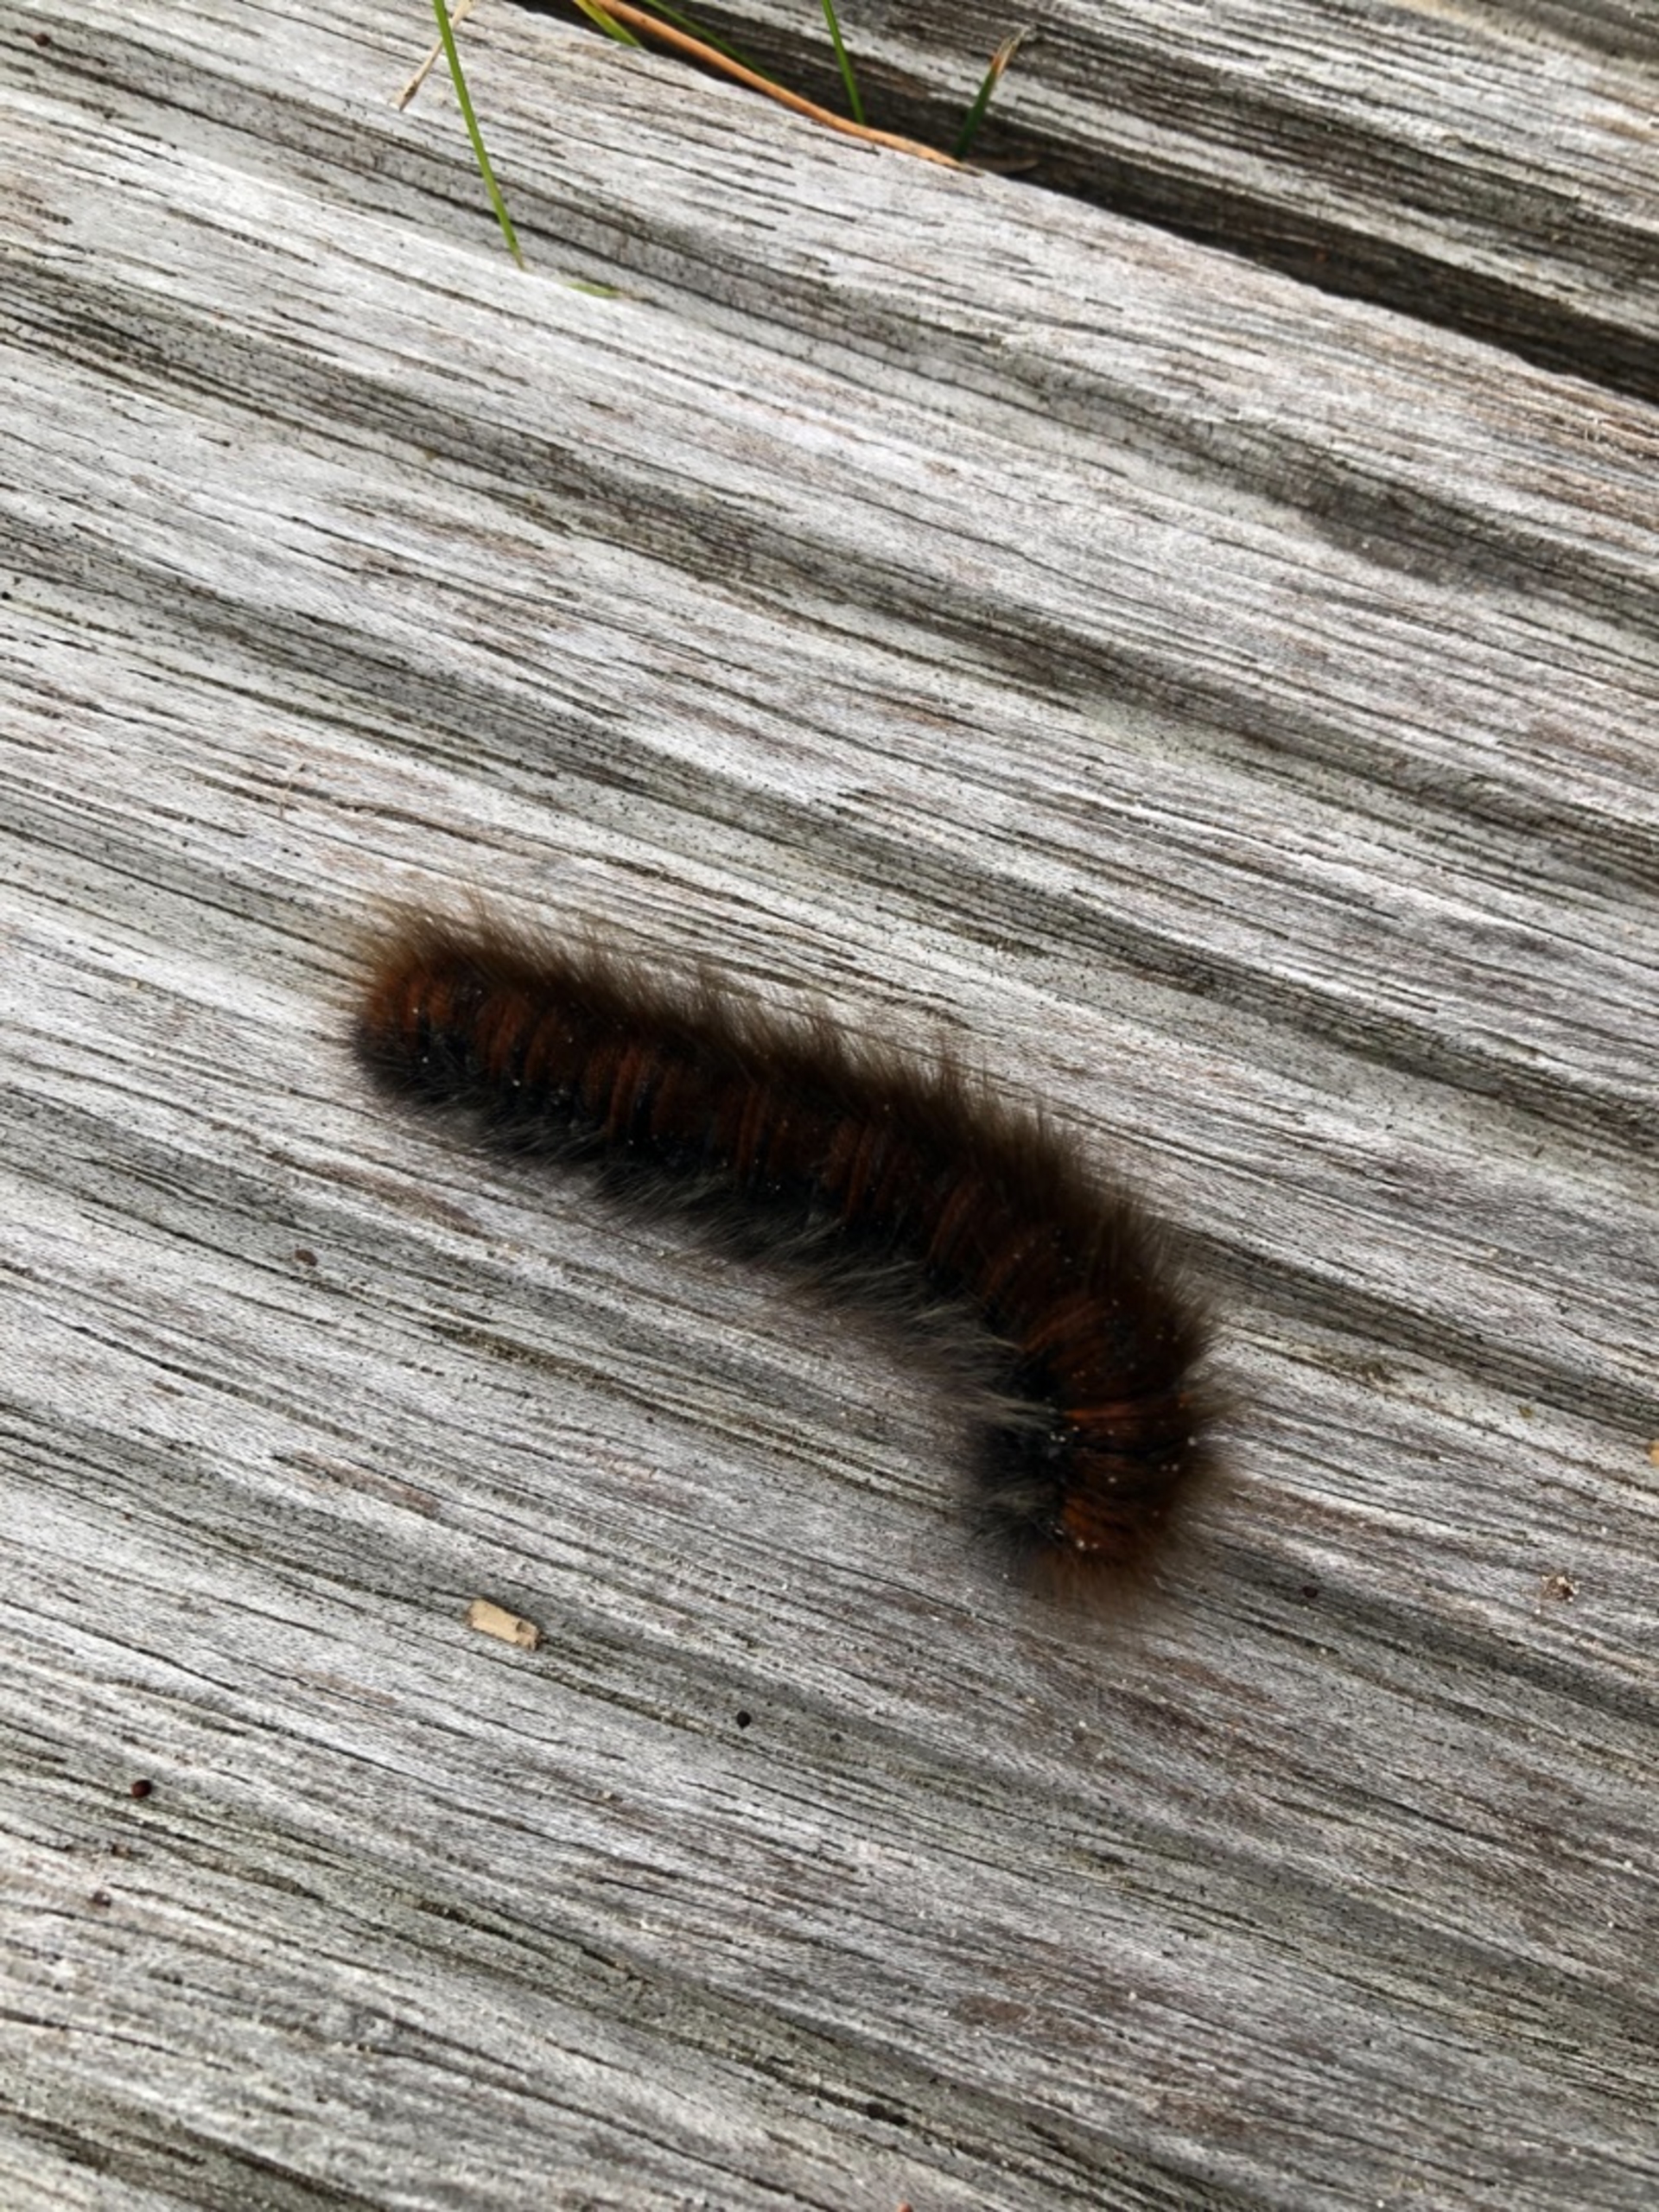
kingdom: Animalia
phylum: Arthropoda
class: Insecta
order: Lepidoptera
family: Lasiocampidae
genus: Macrothylacia
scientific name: Macrothylacia rubi
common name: Brombærspinder
